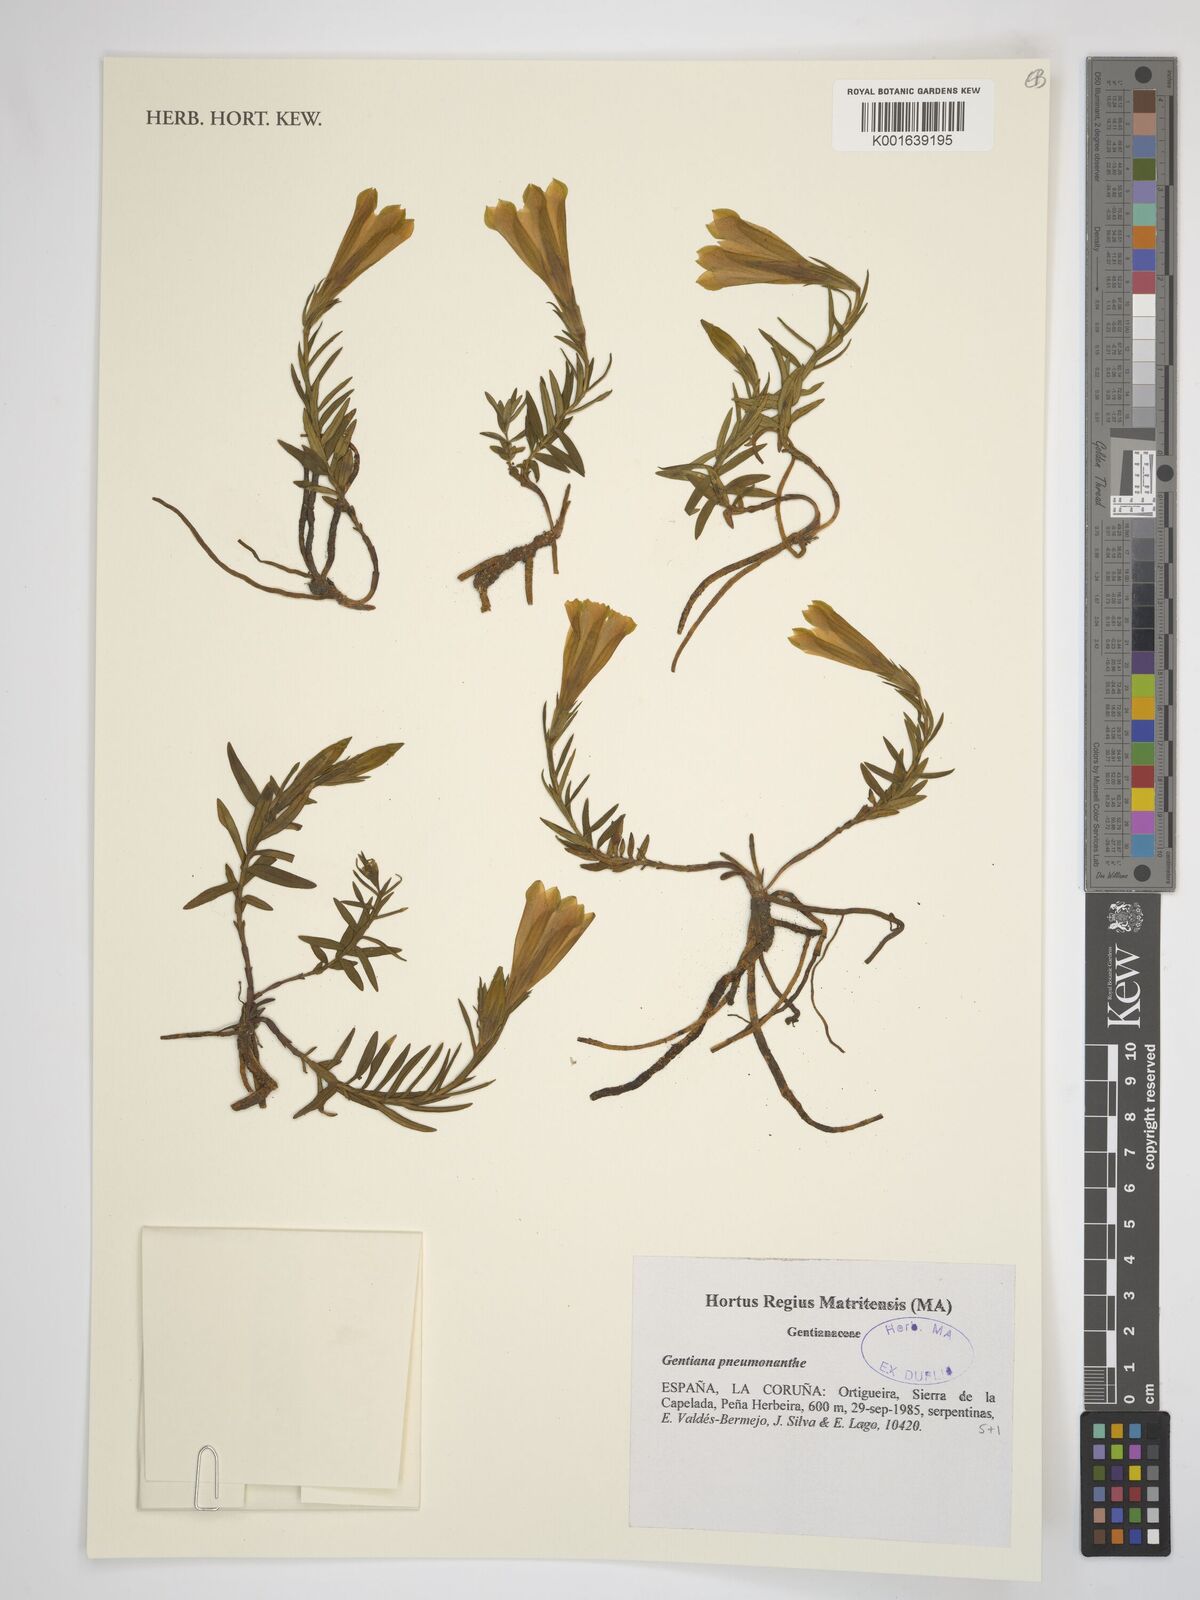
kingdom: Plantae
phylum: Tracheophyta
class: Magnoliopsida
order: Gentianales
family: Gentianaceae
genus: Gentiana
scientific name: Gentiana pneumonanthe
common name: Marsh gentian
